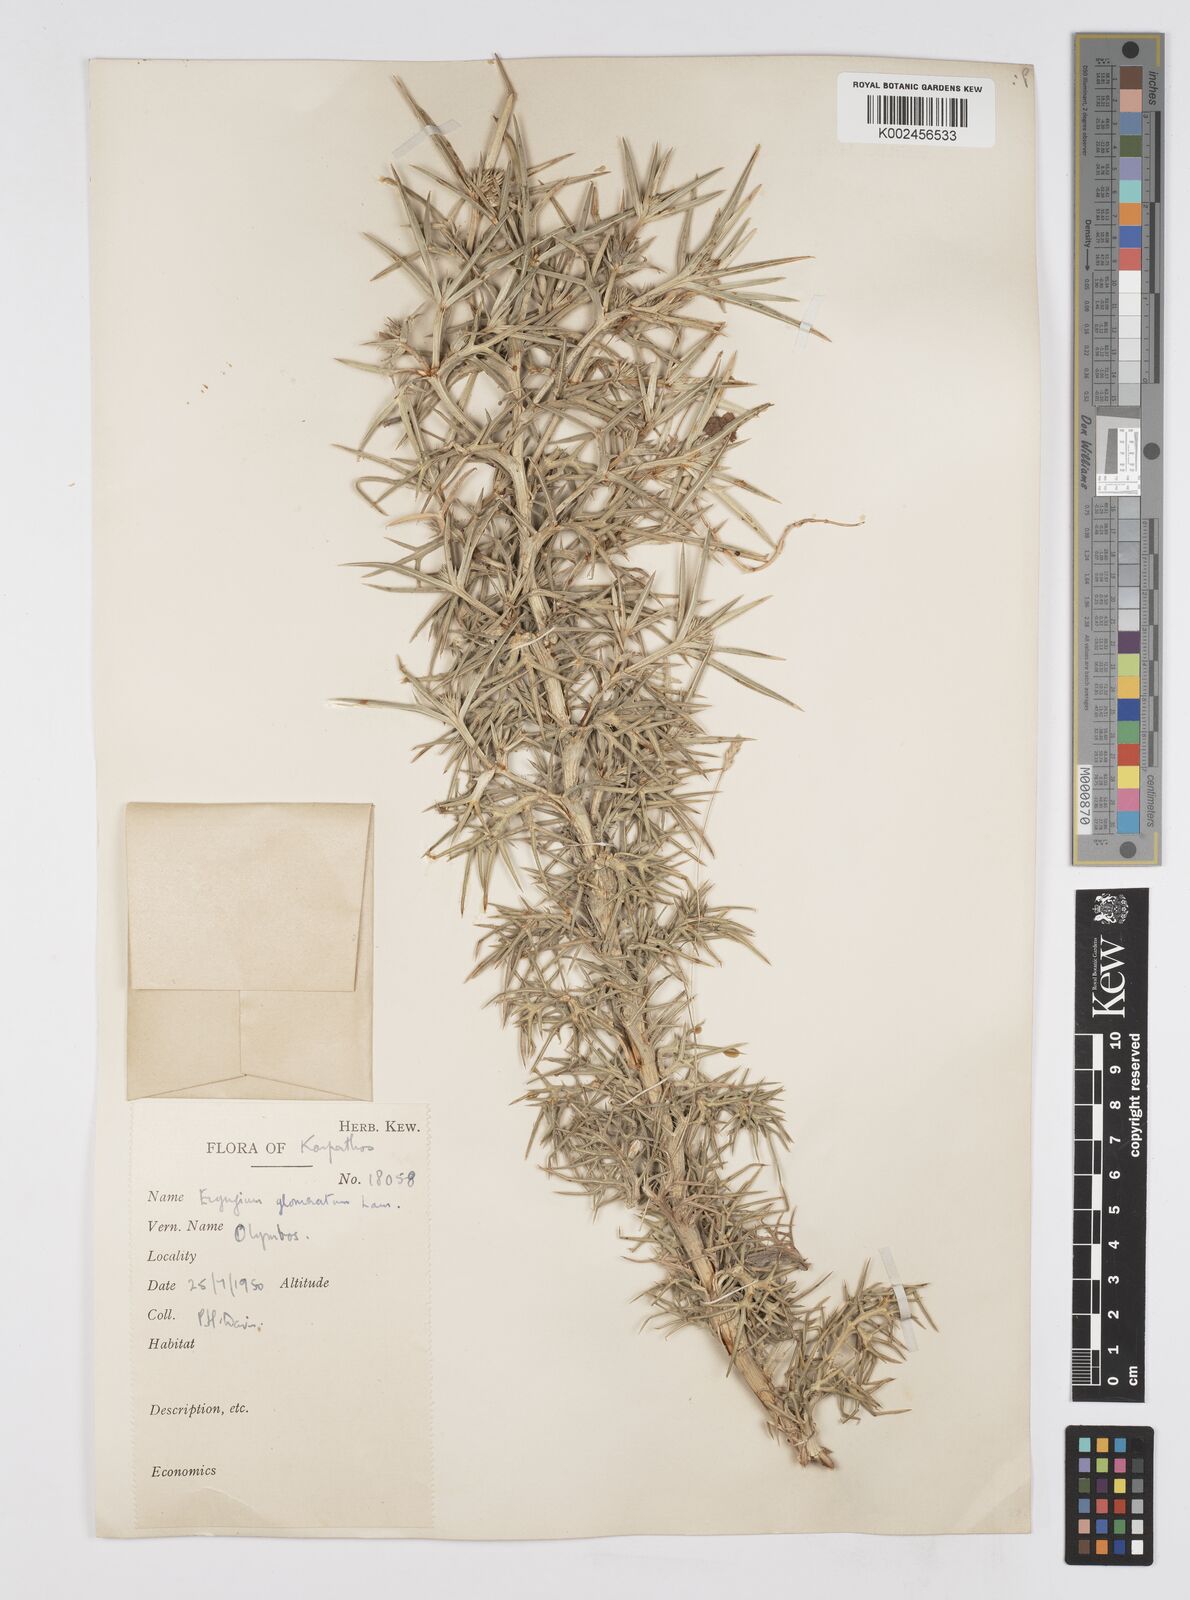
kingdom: Plantae
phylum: Tracheophyta
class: Magnoliopsida
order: Apiales
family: Apiaceae
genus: Eryngium
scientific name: Eryngium glomeratum
